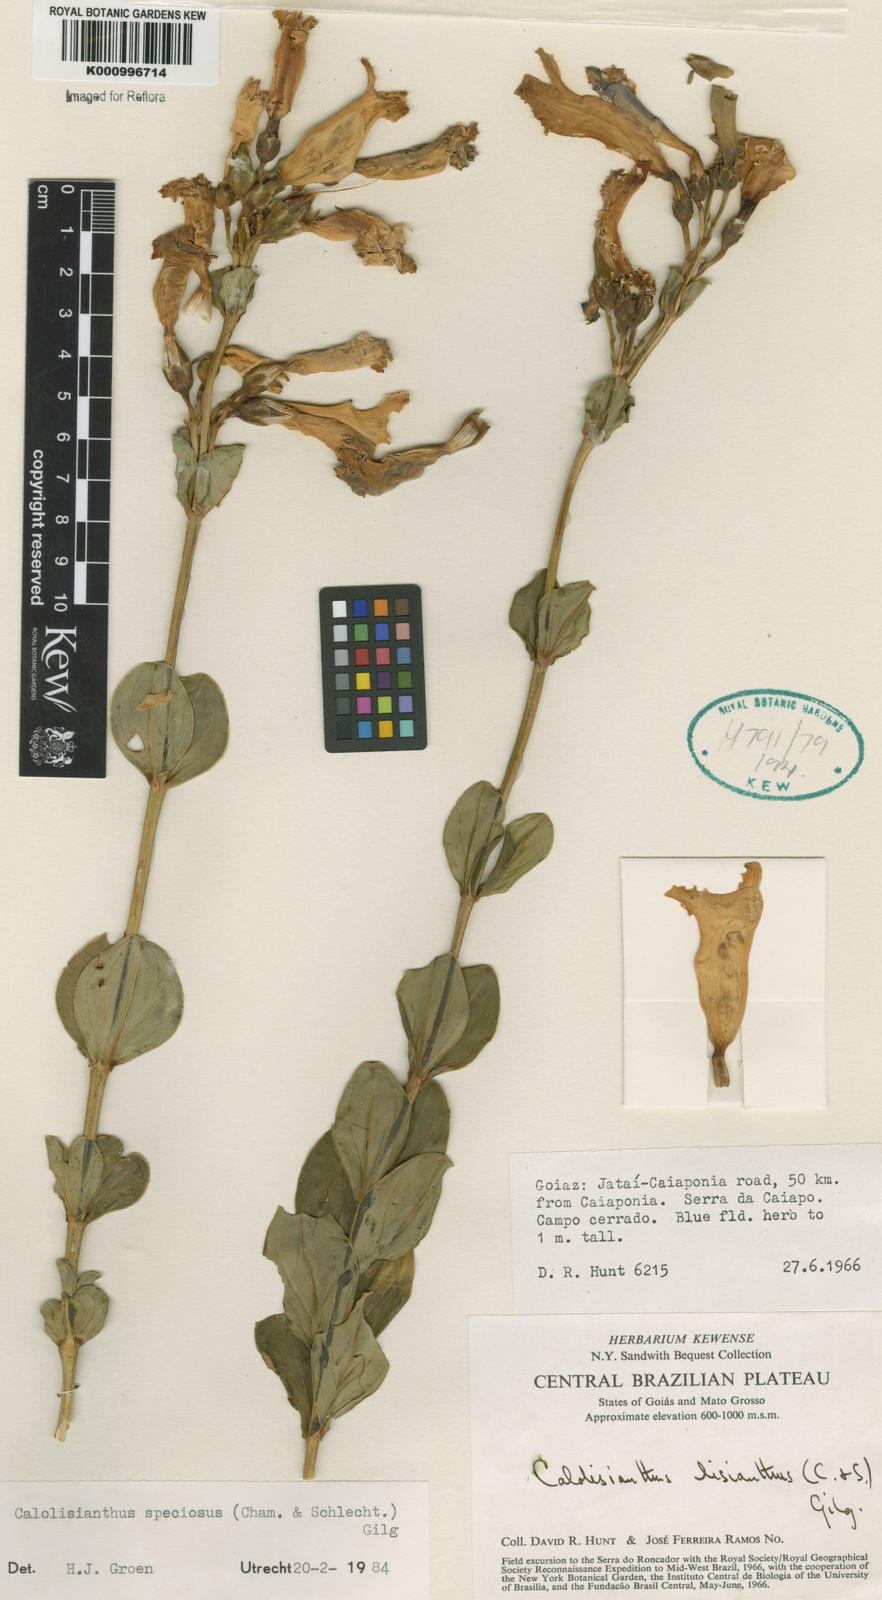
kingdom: Plantae
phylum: Tracheophyta
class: Magnoliopsida
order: Gentianales
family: Gentianaceae
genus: Calolisianthus
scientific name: Calolisianthus speciosus
